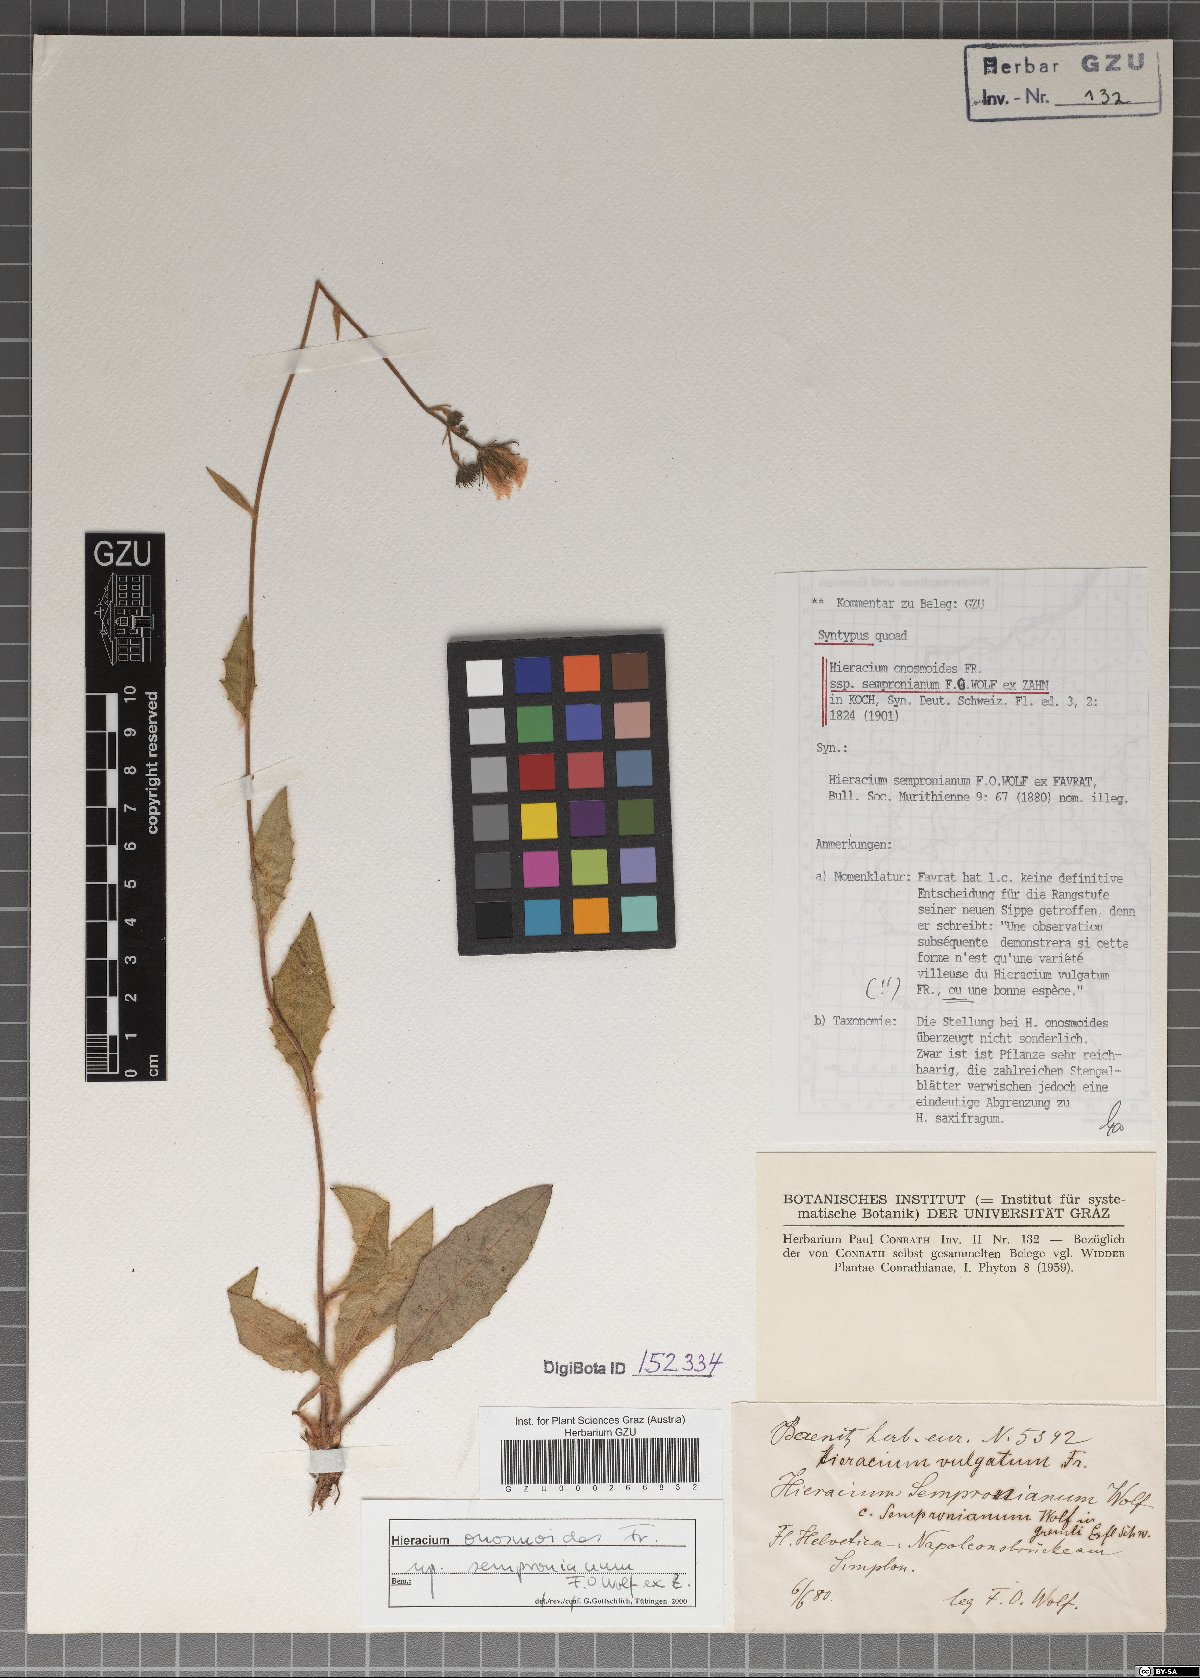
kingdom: Plantae
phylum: Tracheophyta
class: Magnoliopsida
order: Asterales
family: Asteraceae
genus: Hieracium
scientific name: Hieracium saxifragum
